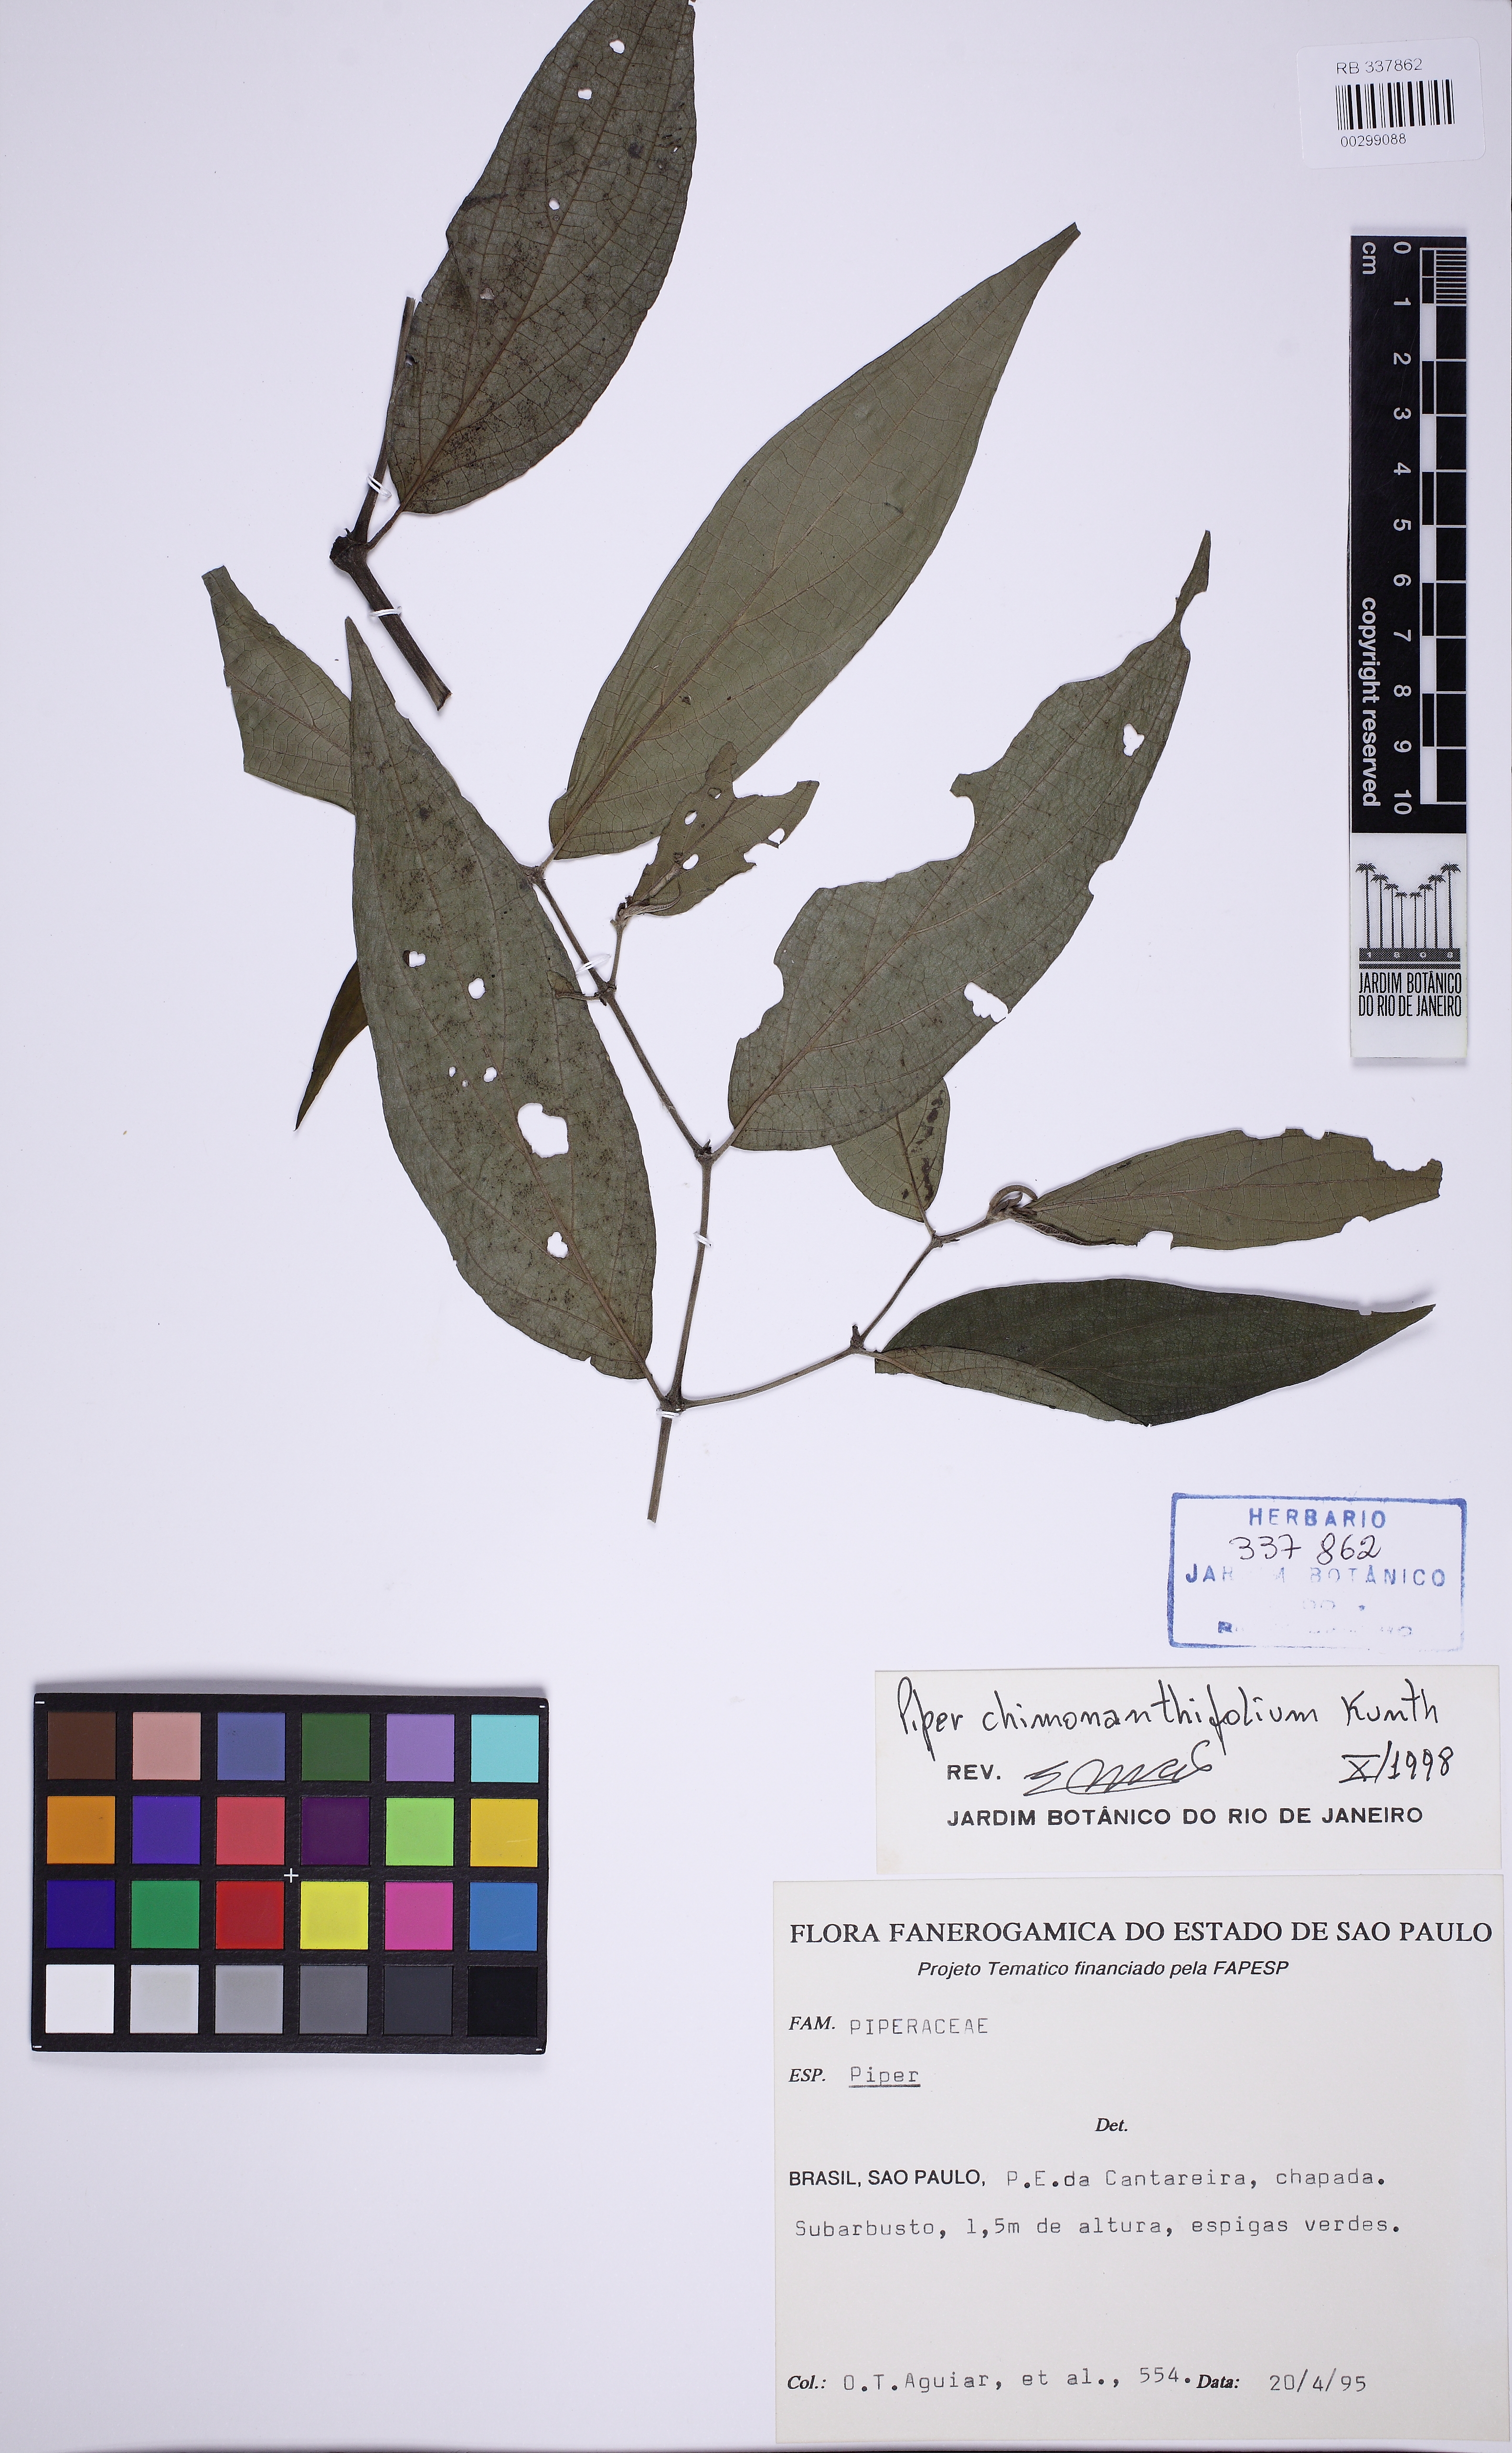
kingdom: Plantae
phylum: Tracheophyta
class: Magnoliopsida
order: Piperales
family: Piperaceae
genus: Piper
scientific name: Piper chimonanthifolium
